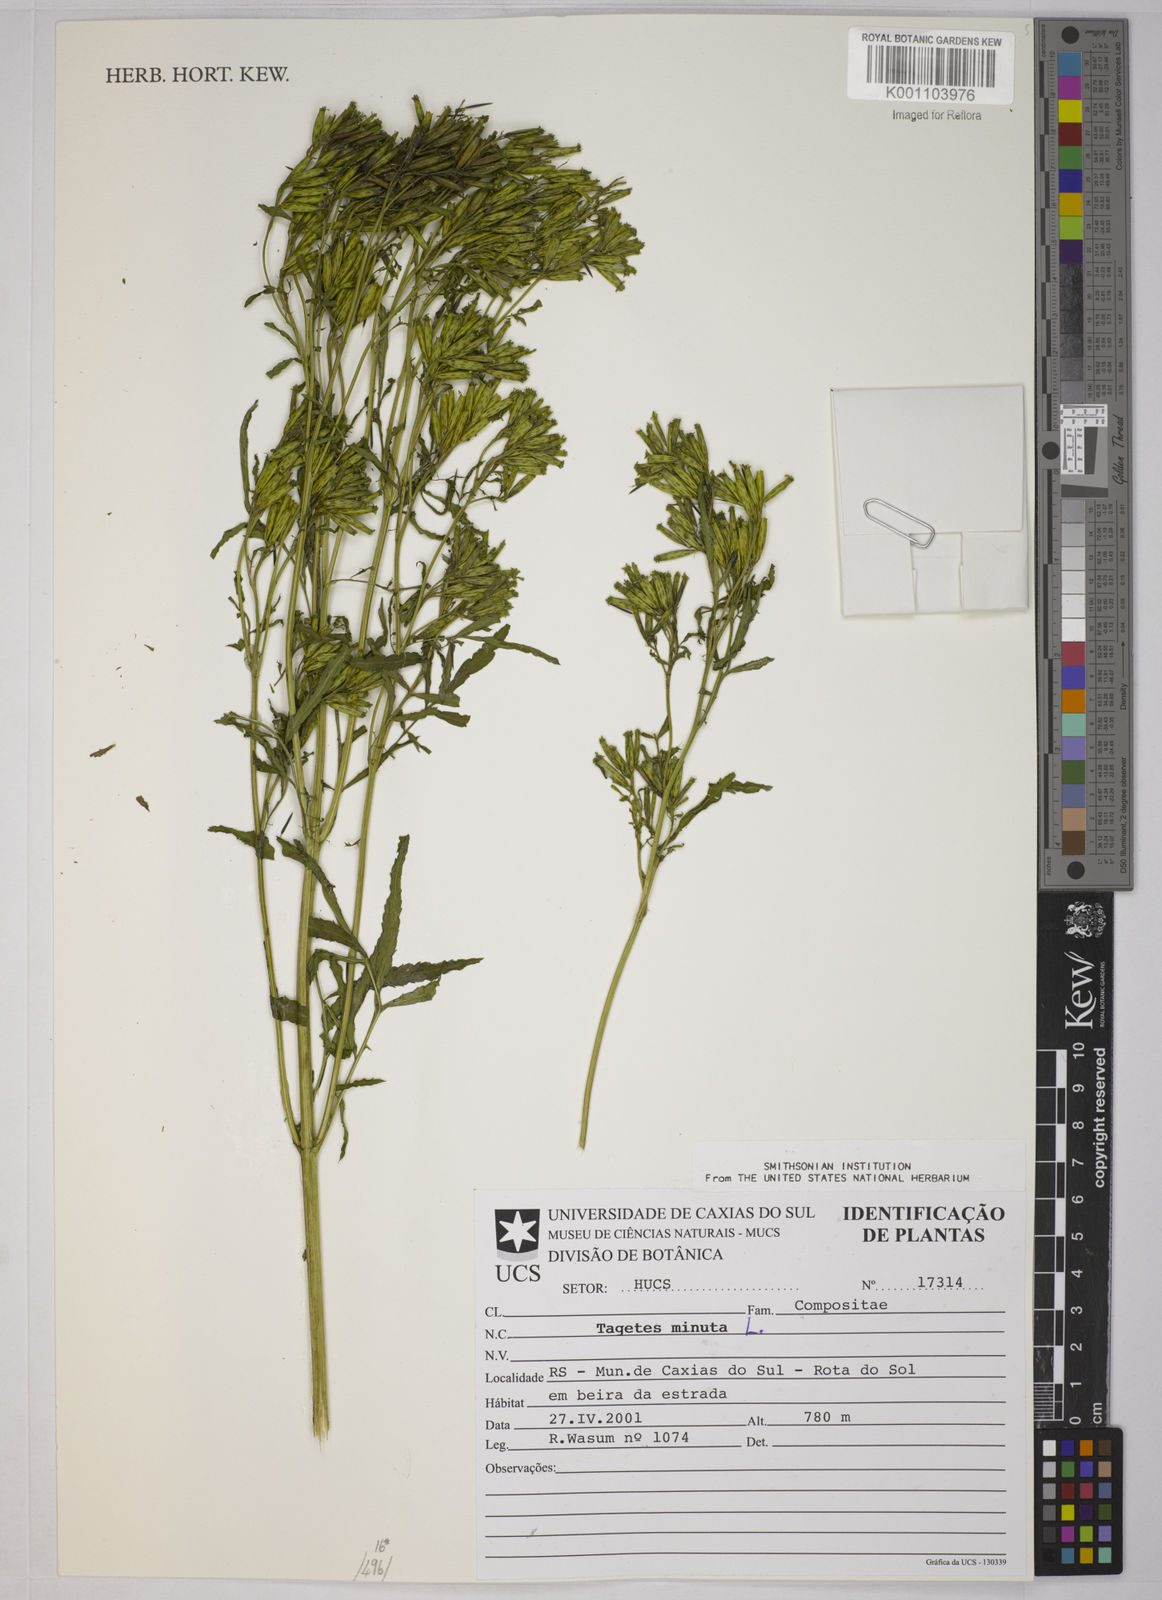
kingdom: Plantae
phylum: Tracheophyta
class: Magnoliopsida
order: Asterales
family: Asteraceae
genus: Tagetes
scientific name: Tagetes minuta
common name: Muster john henry
